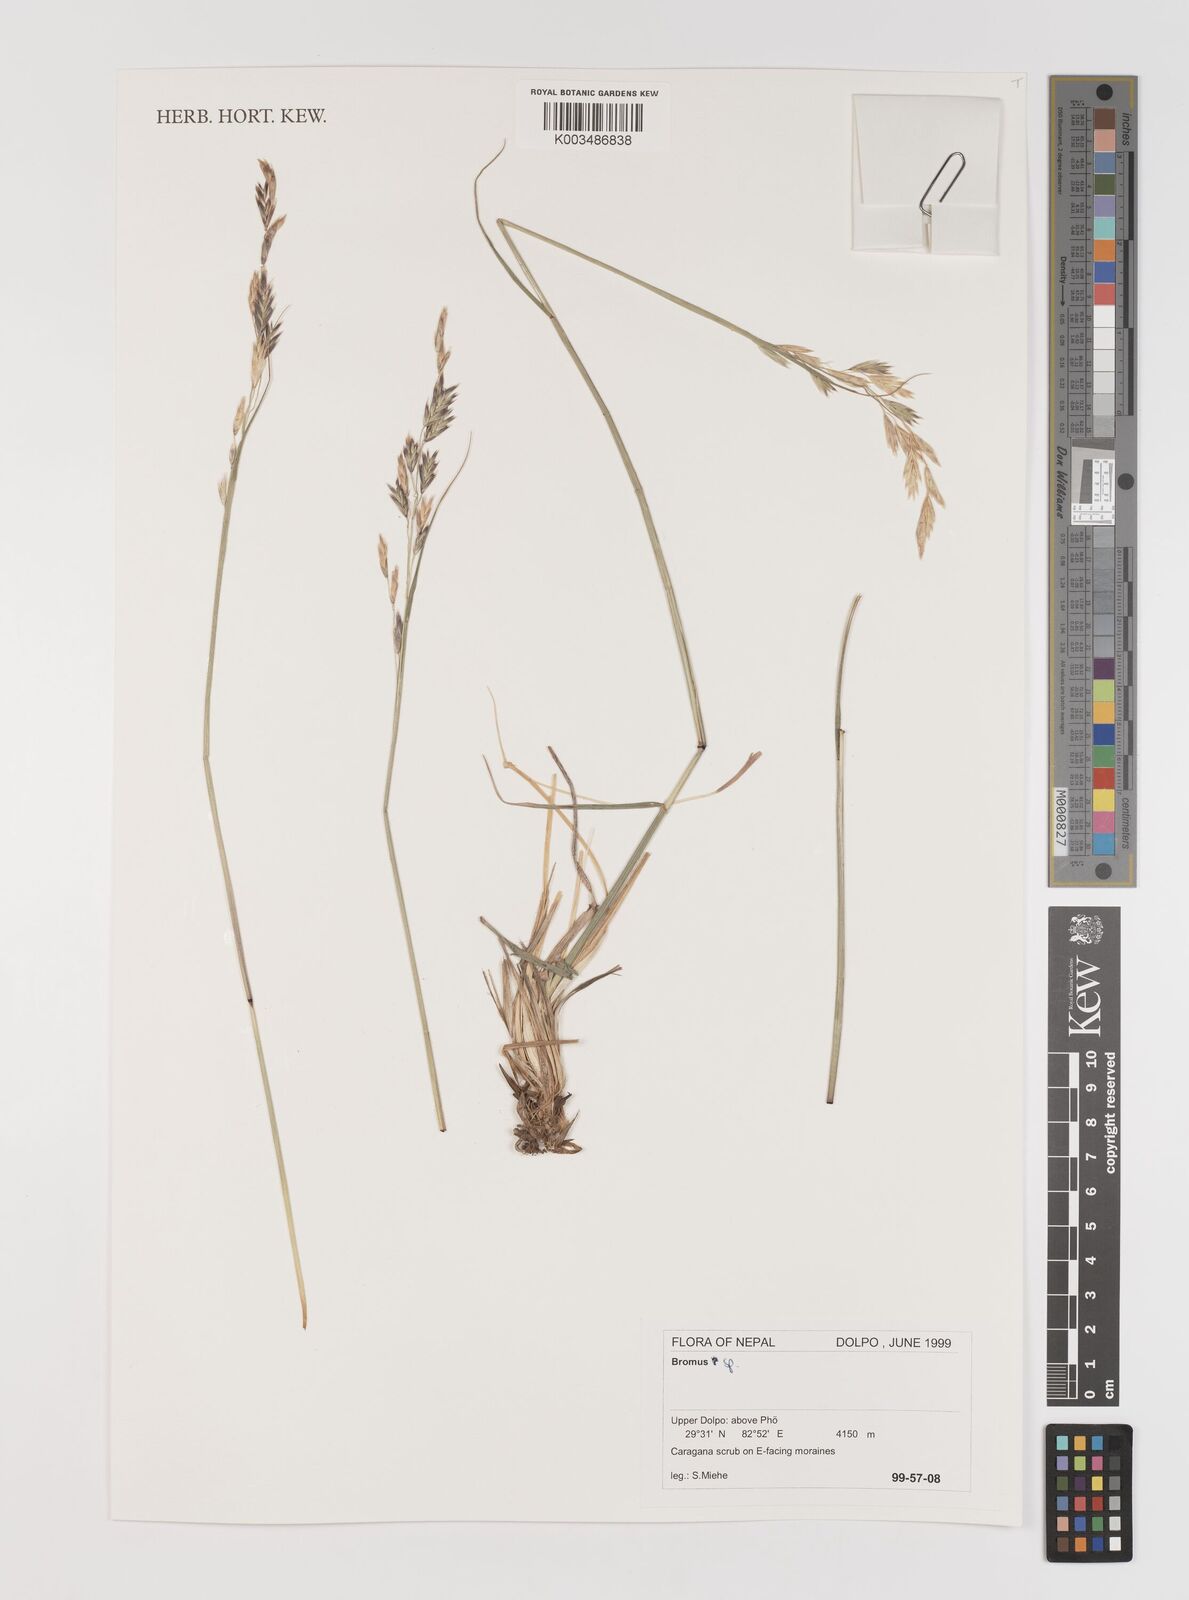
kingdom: Plantae
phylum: Tracheophyta
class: Liliopsida
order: Poales
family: Poaceae
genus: Bromus
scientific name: Bromus
